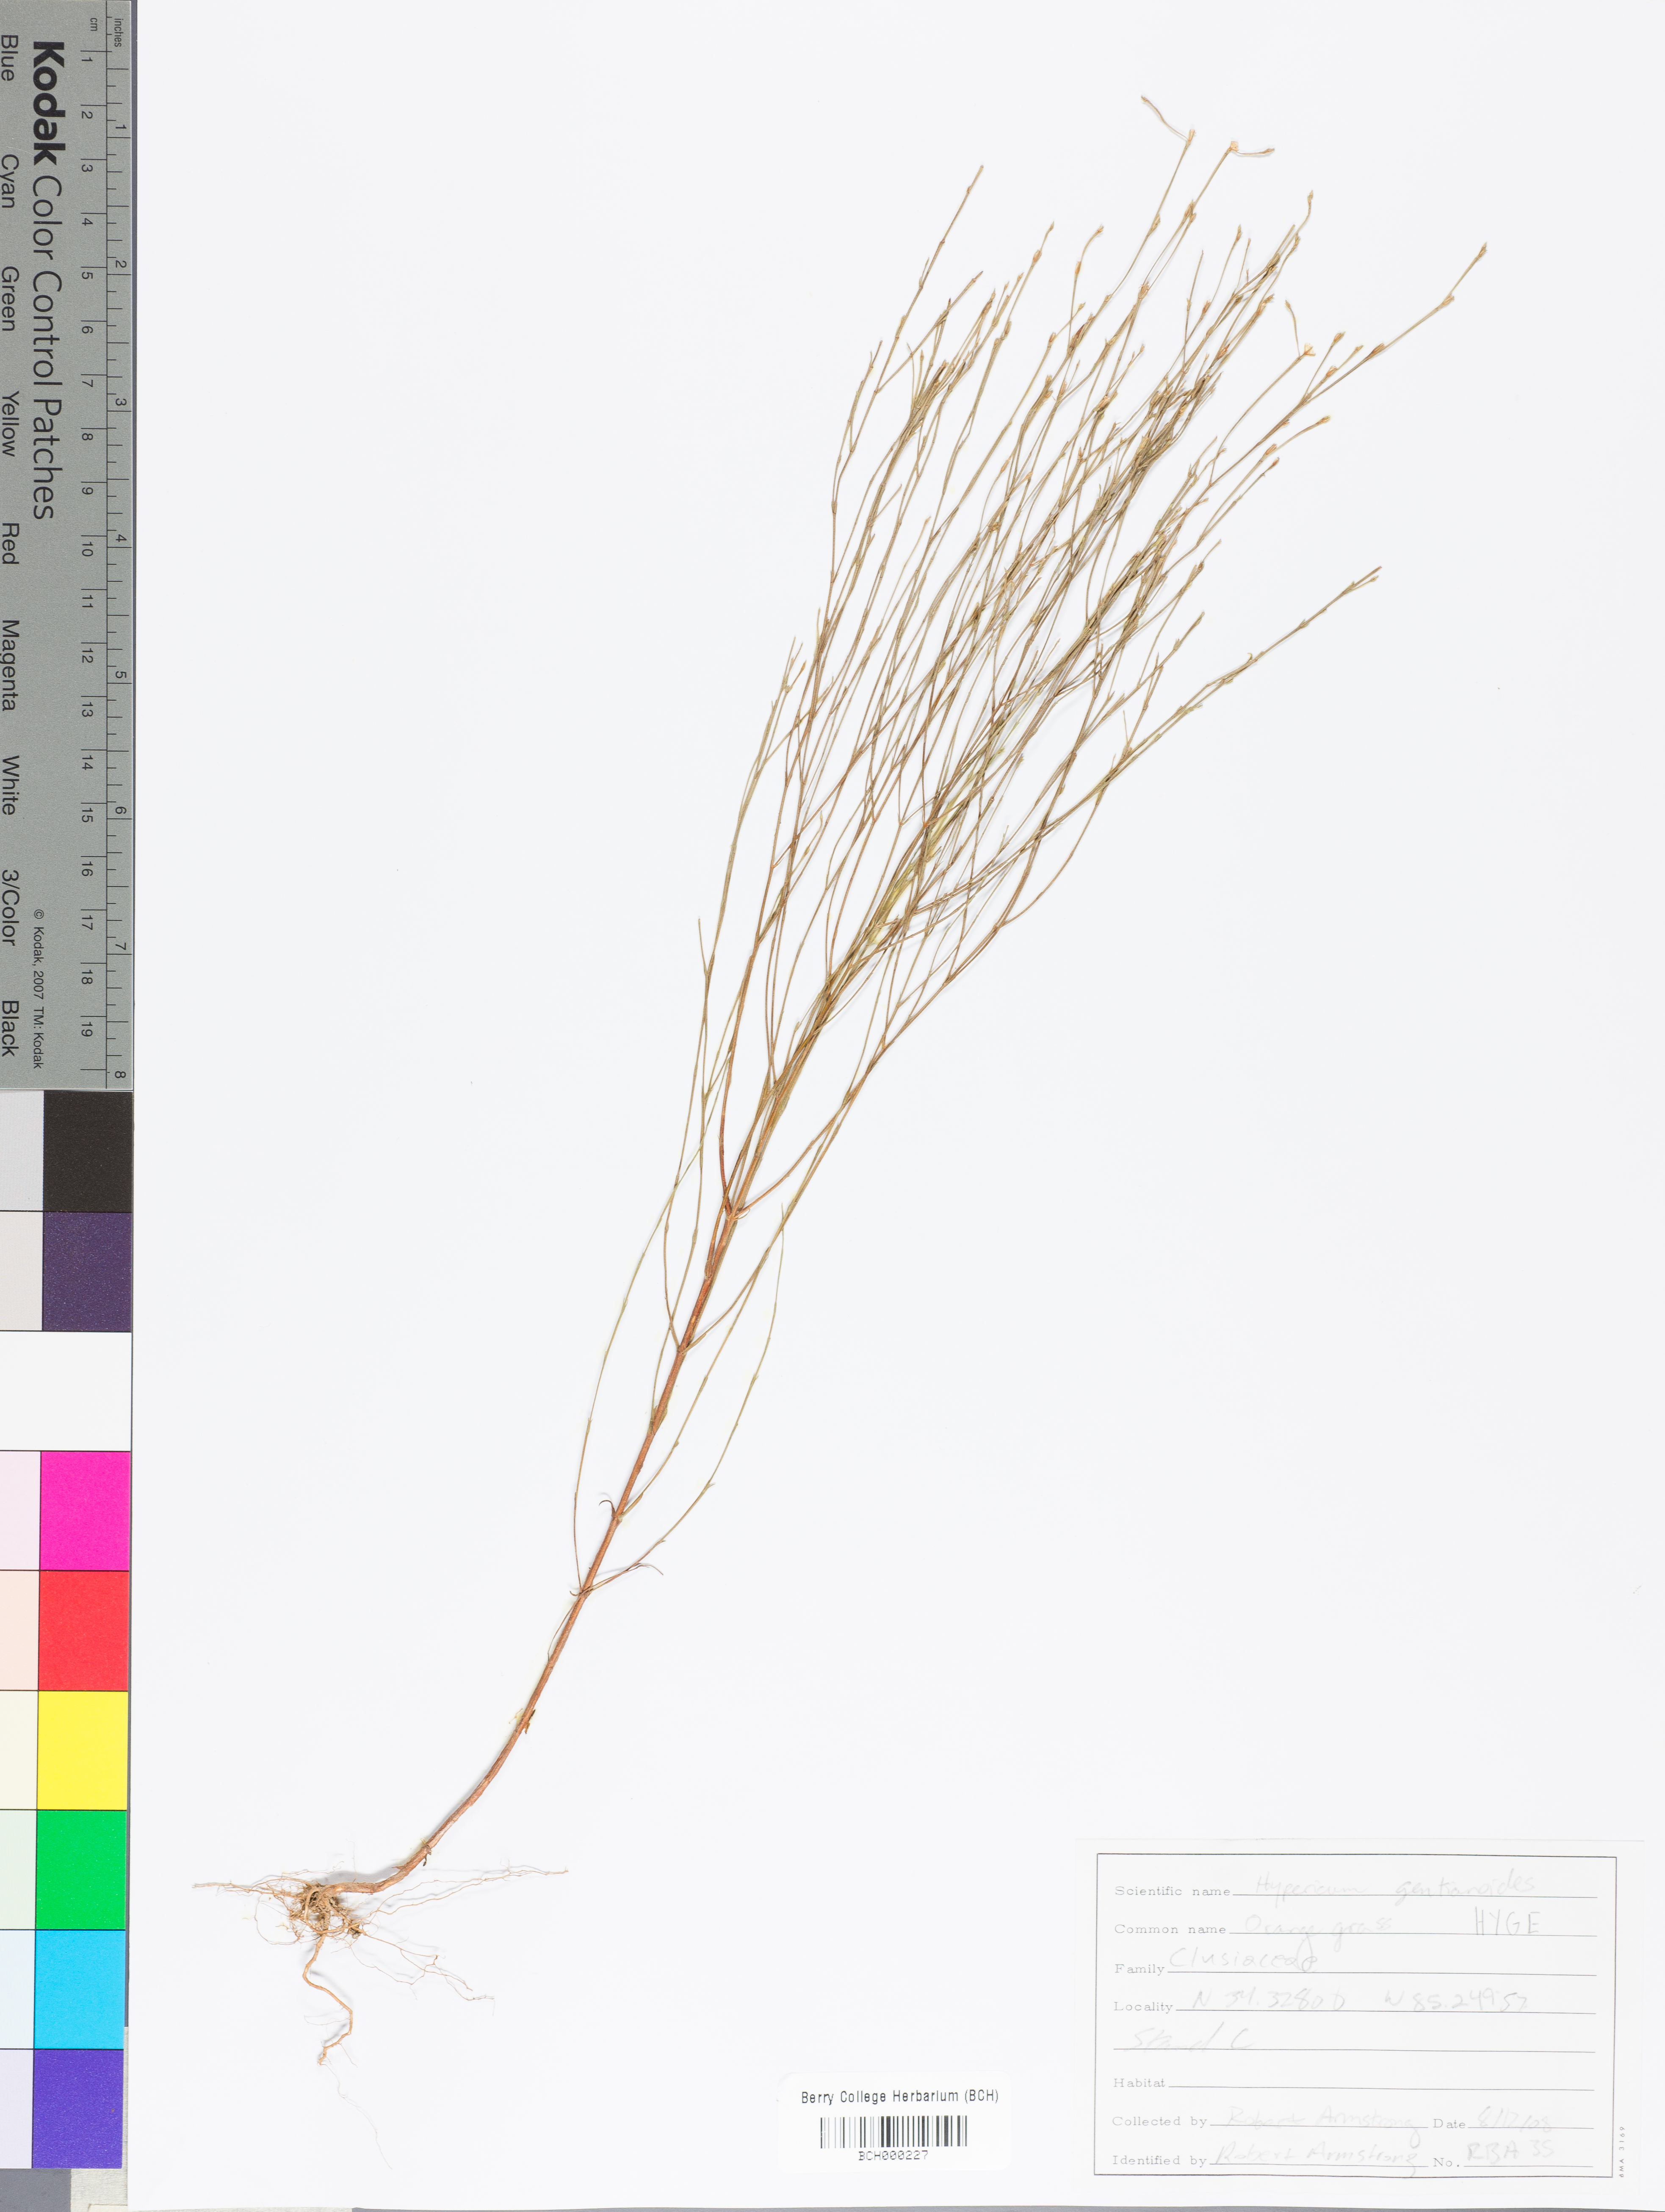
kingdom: Plantae
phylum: Tracheophyta
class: Magnoliopsida
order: Malpighiales
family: Hypericaceae
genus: Hypericum
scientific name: Hypericum gentianoides
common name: Gentian-leaved st. john's-wort
